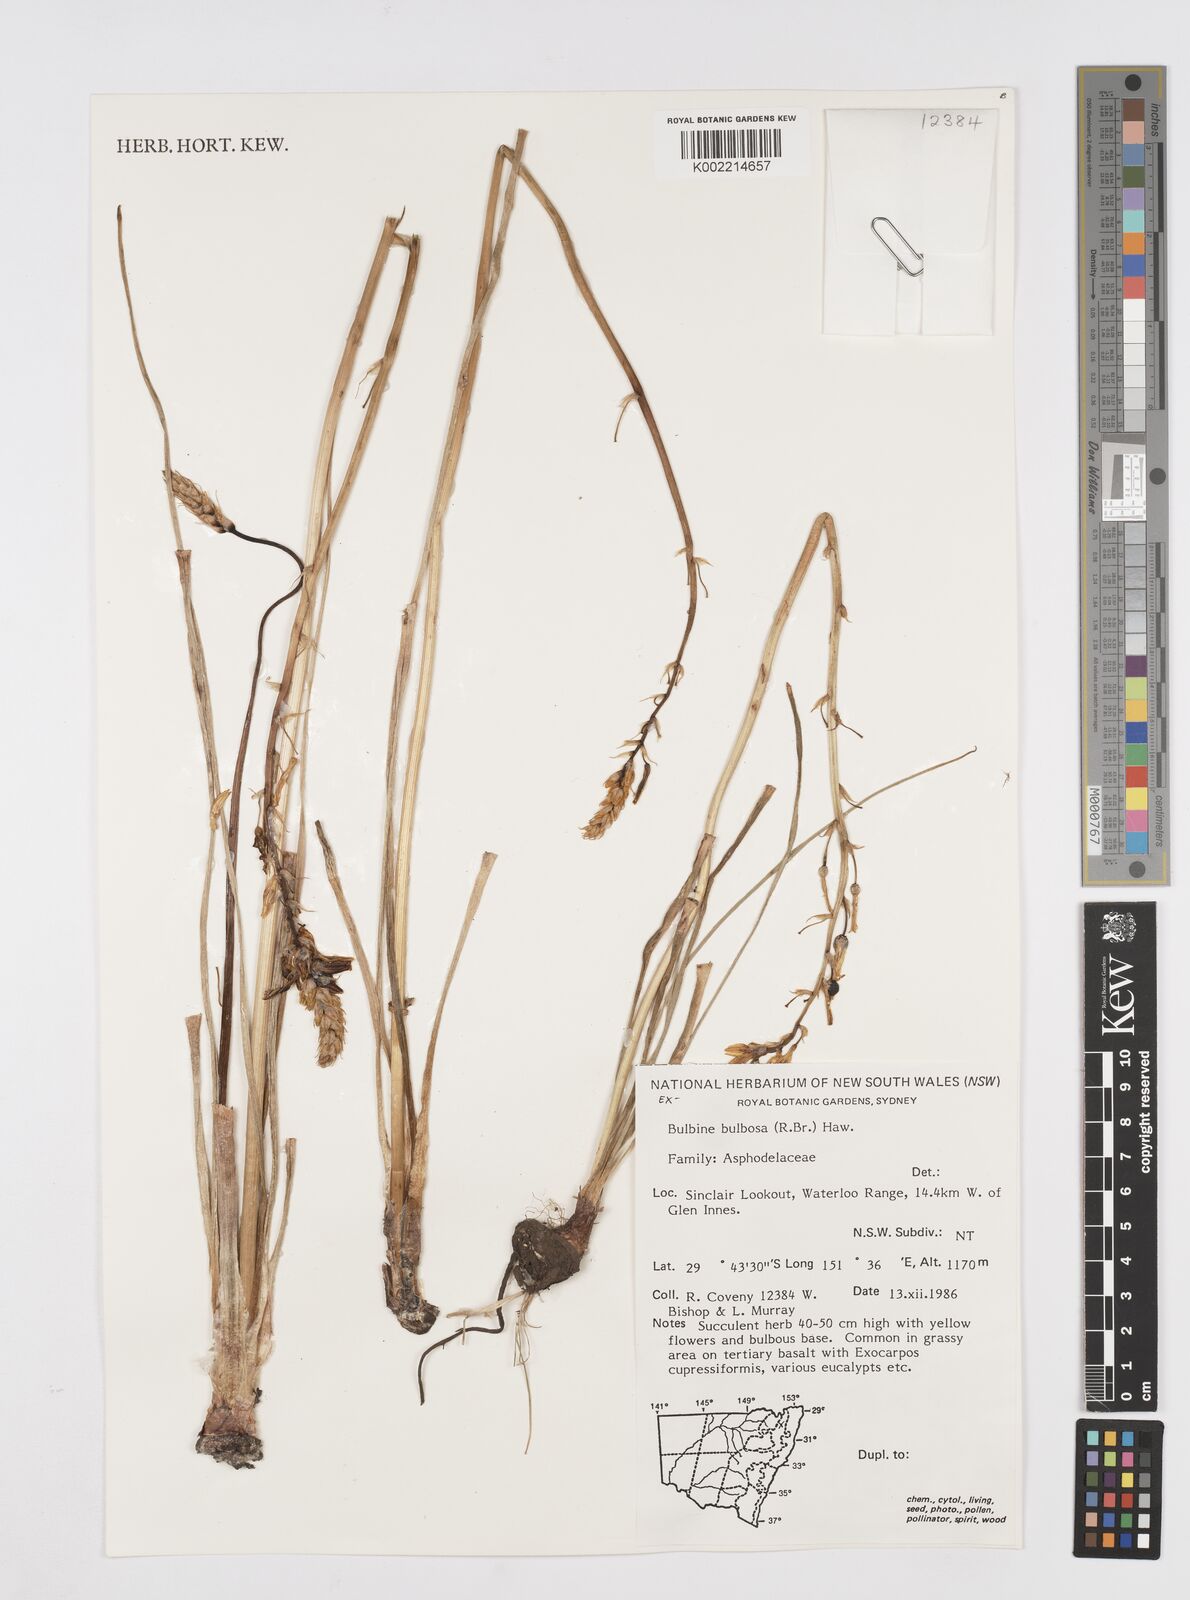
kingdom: Plantae
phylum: Tracheophyta
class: Liliopsida
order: Asparagales
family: Asphodelaceae
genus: Bulbine
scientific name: Bulbine bulbosa
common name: Golden-lily
